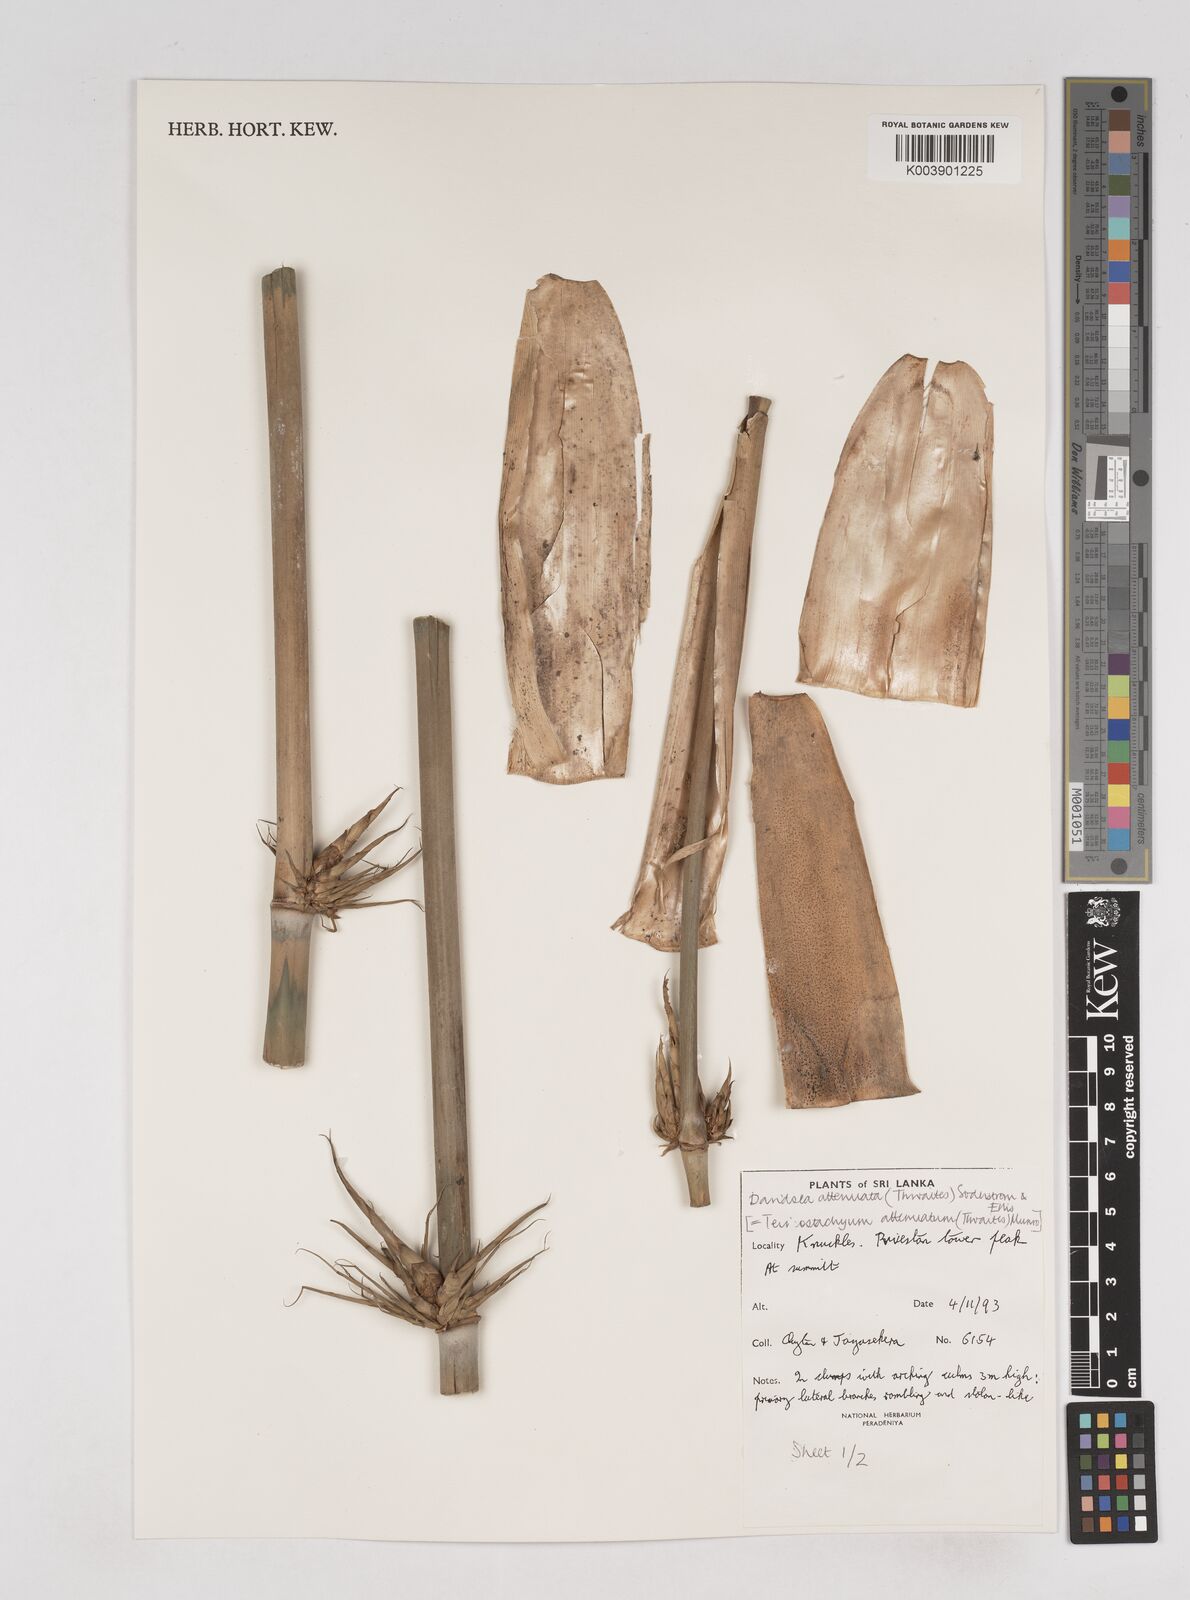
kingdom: Plantae
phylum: Tracheophyta
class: Liliopsida
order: Poales
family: Poaceae
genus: Davidsea
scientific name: Davidsea
